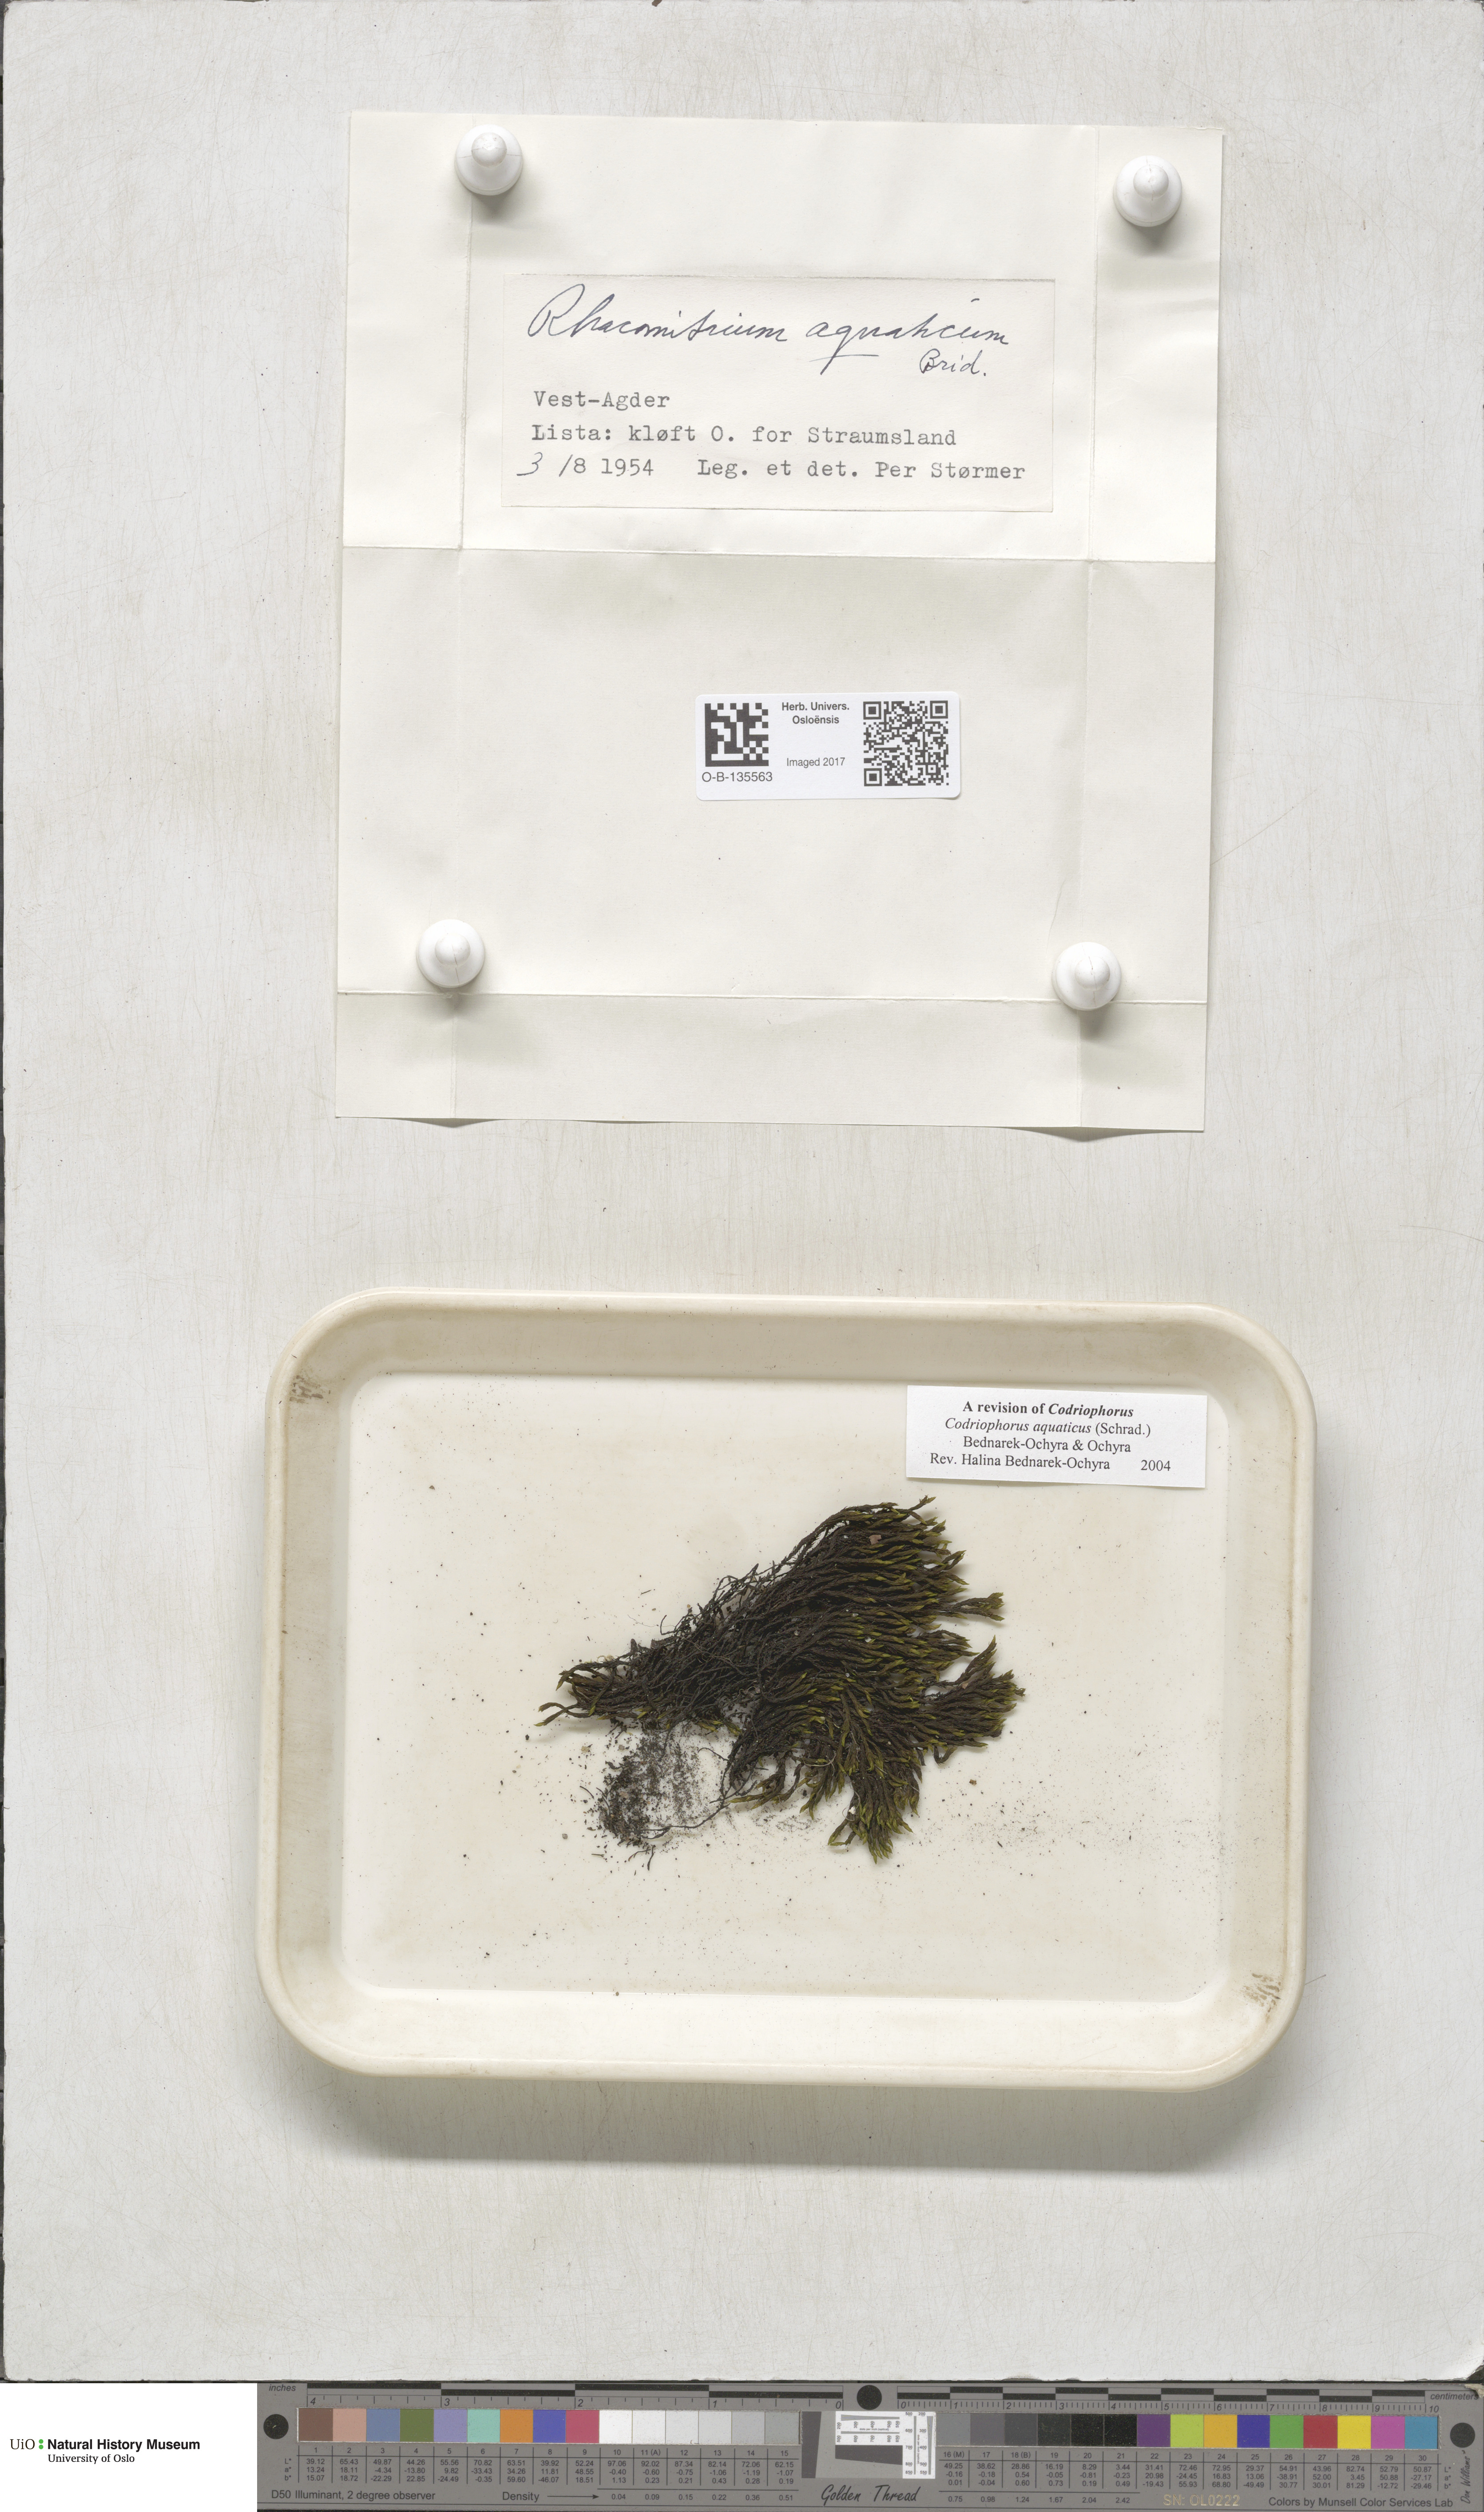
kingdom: Plantae
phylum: Bryophyta
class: Bryopsida
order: Grimmiales
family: Grimmiaceae
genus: Codriophorus
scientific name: Codriophorus aquaticus
